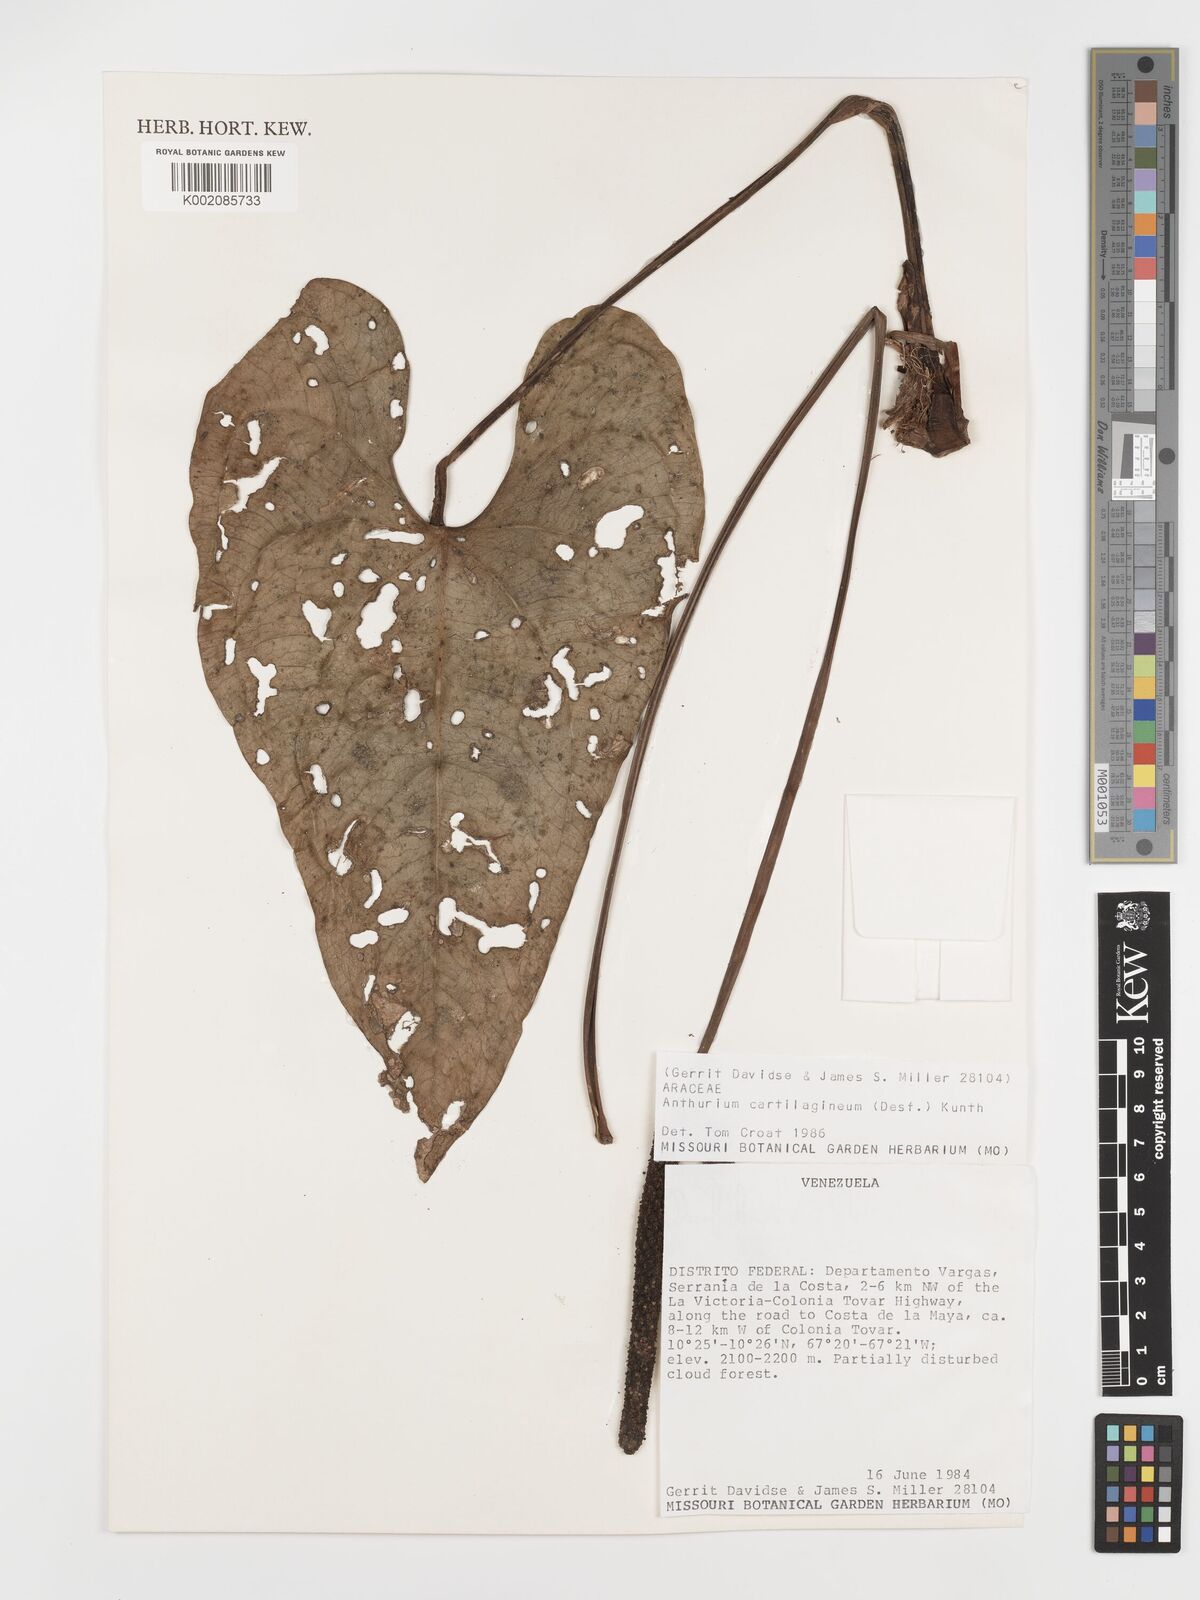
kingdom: Plantae
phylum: Tracheophyta
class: Liliopsida
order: Alismatales
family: Araceae
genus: Anthurium
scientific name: Anthurium cartilagineum
